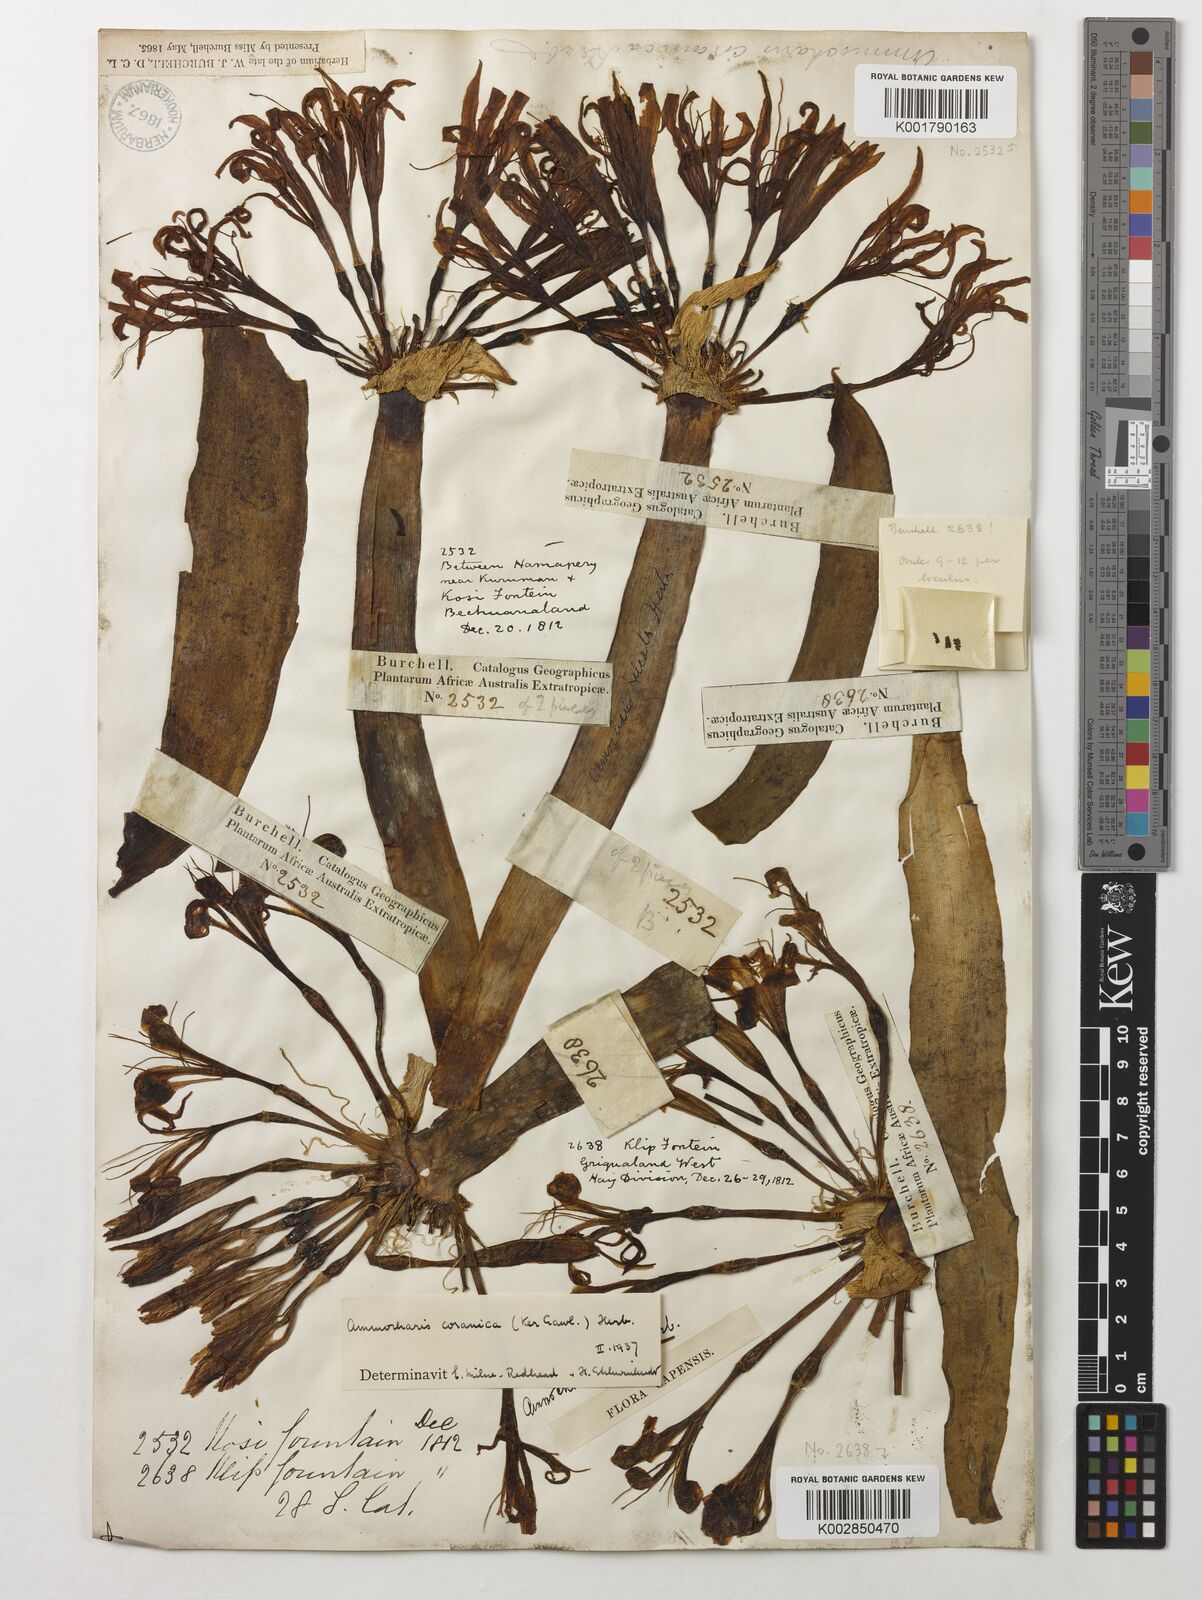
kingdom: Plantae
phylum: Tracheophyta
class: Liliopsida
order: Asparagales
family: Amaryllidaceae
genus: Ammocharis
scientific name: Ammocharis coranica
